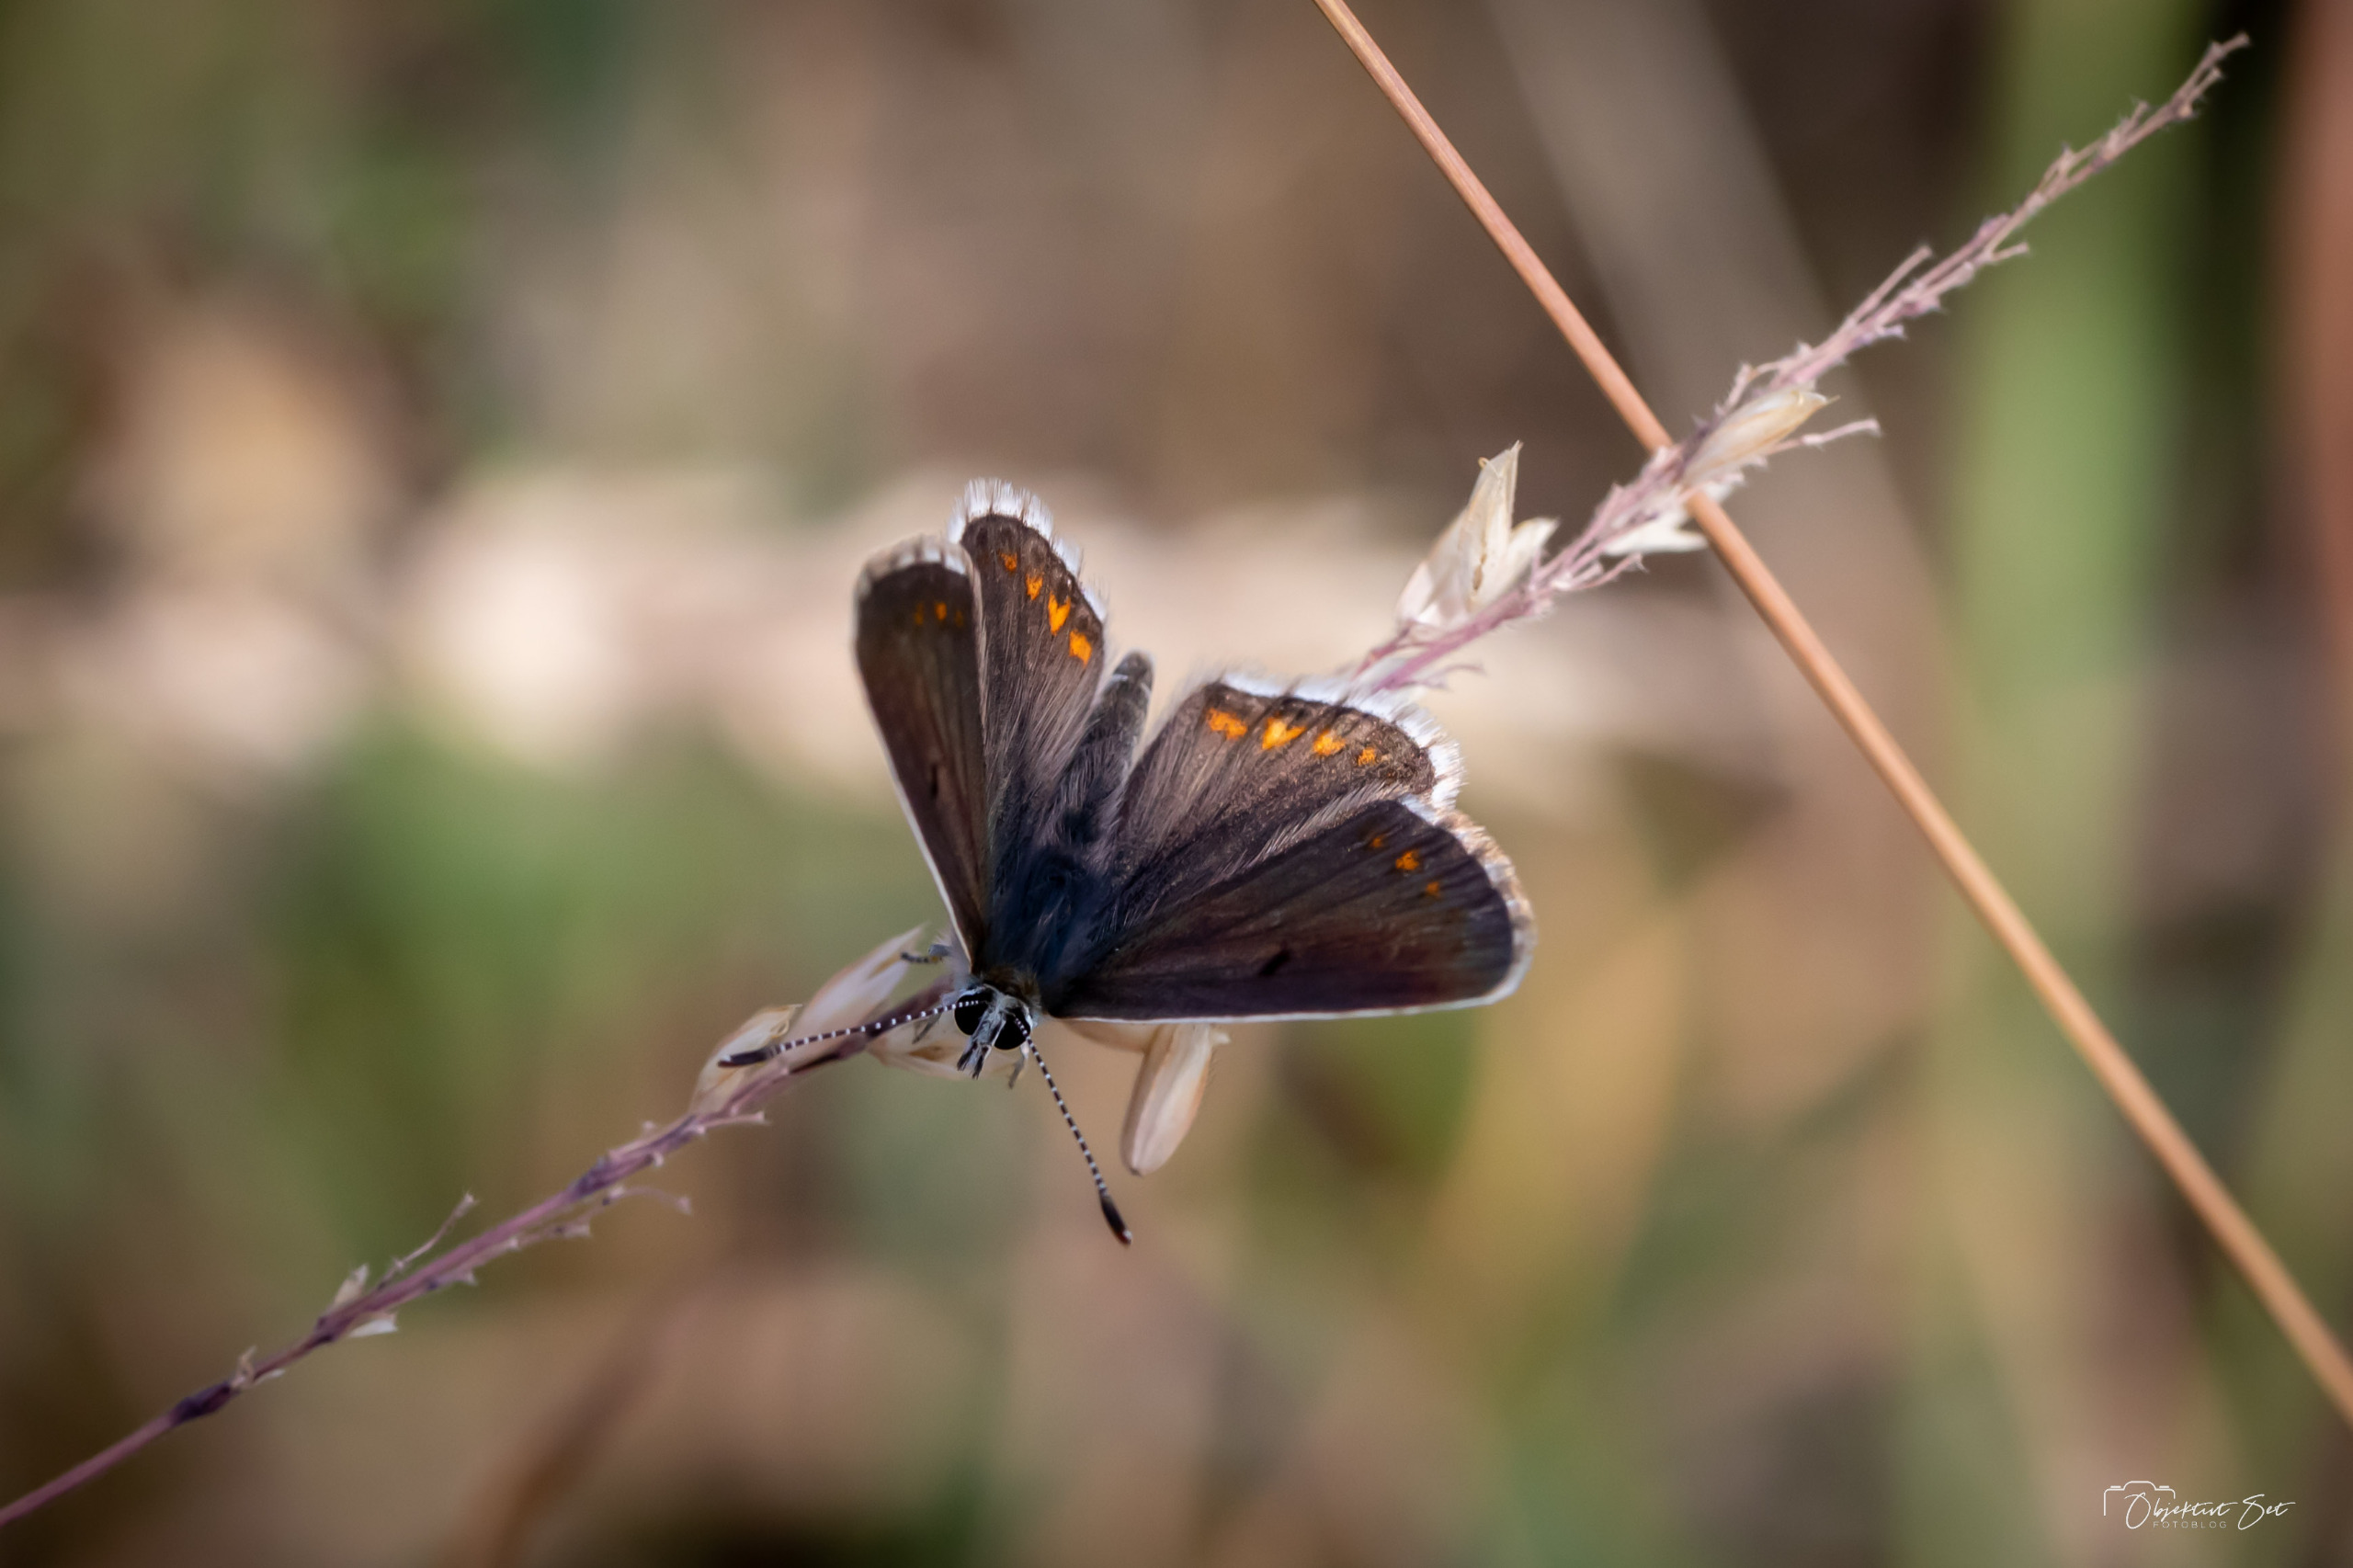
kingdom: Animalia
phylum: Arthropoda
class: Insecta
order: Lepidoptera
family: Lycaenidae
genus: Aricia
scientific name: Aricia agestis
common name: Rødplettet blåfugl
